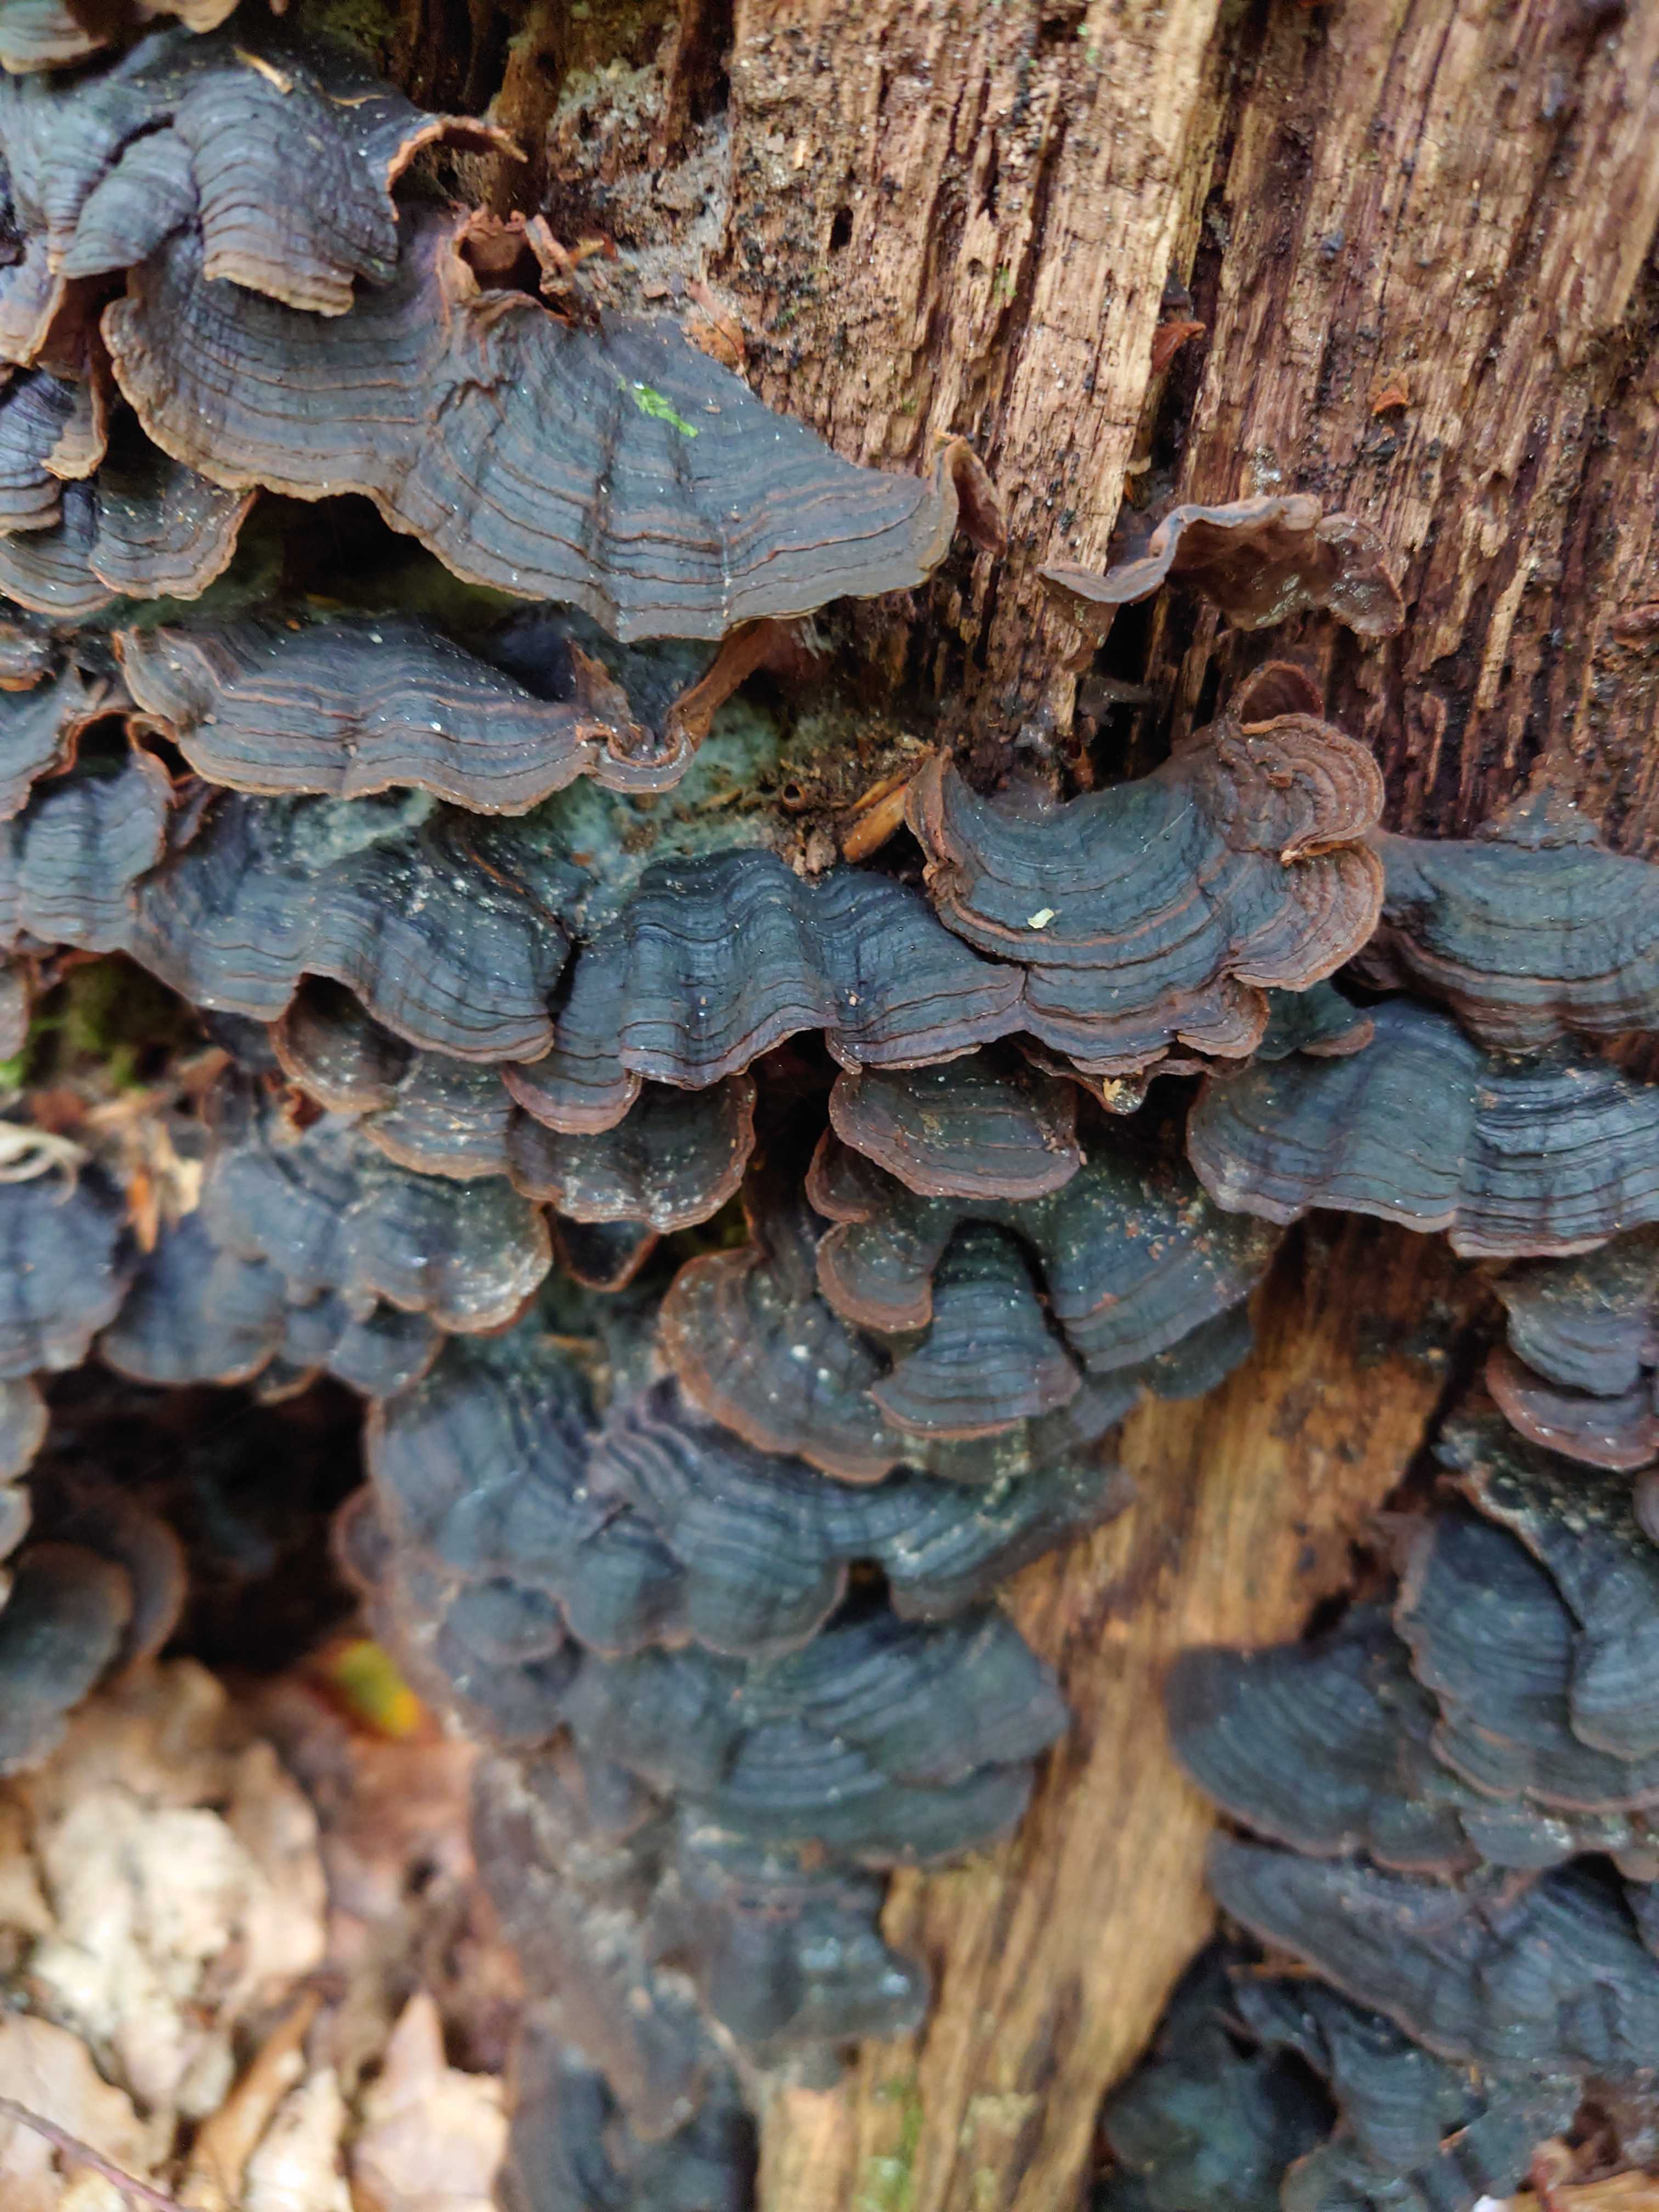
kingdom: Fungi
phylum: Basidiomycota
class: Agaricomycetes
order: Hymenochaetales
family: Hymenochaetaceae
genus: Hymenochaete
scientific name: Hymenochaete rubiginosa
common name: stiv ruslædersvamp
